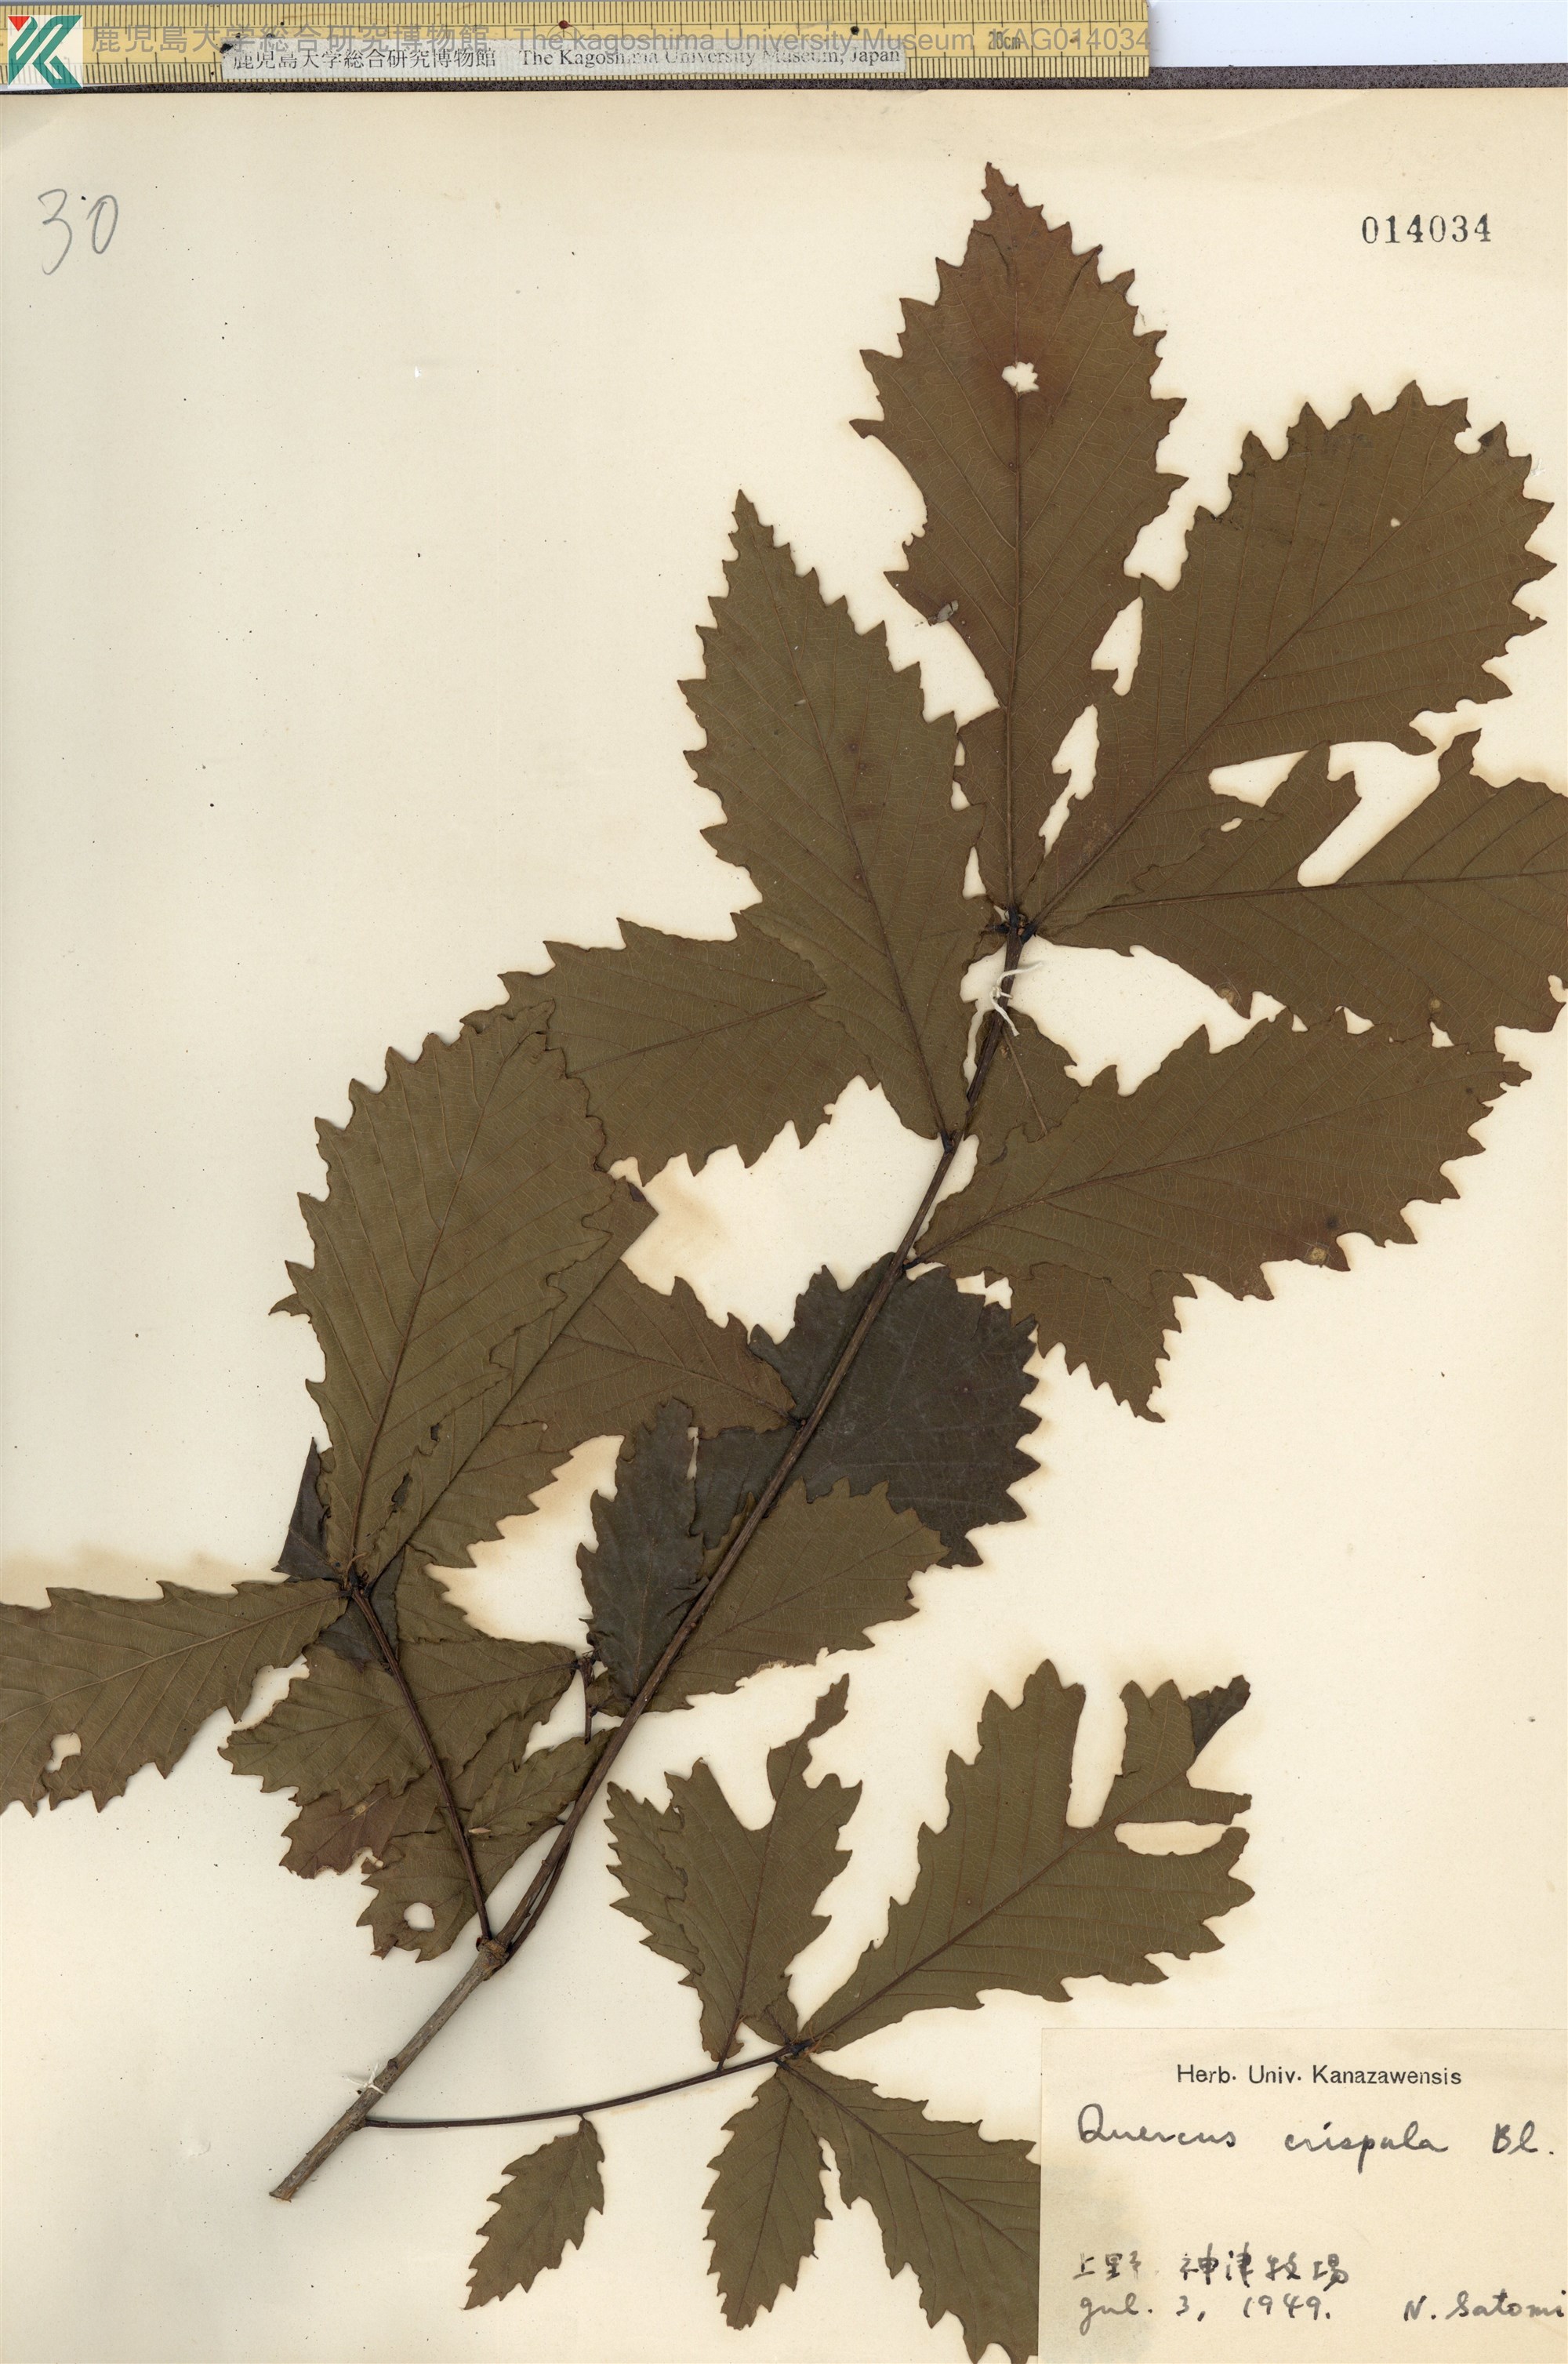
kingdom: Plantae
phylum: Tracheophyta
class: Magnoliopsida
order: Fagales
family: Fagaceae
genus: Quercus
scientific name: Quercus crispula
